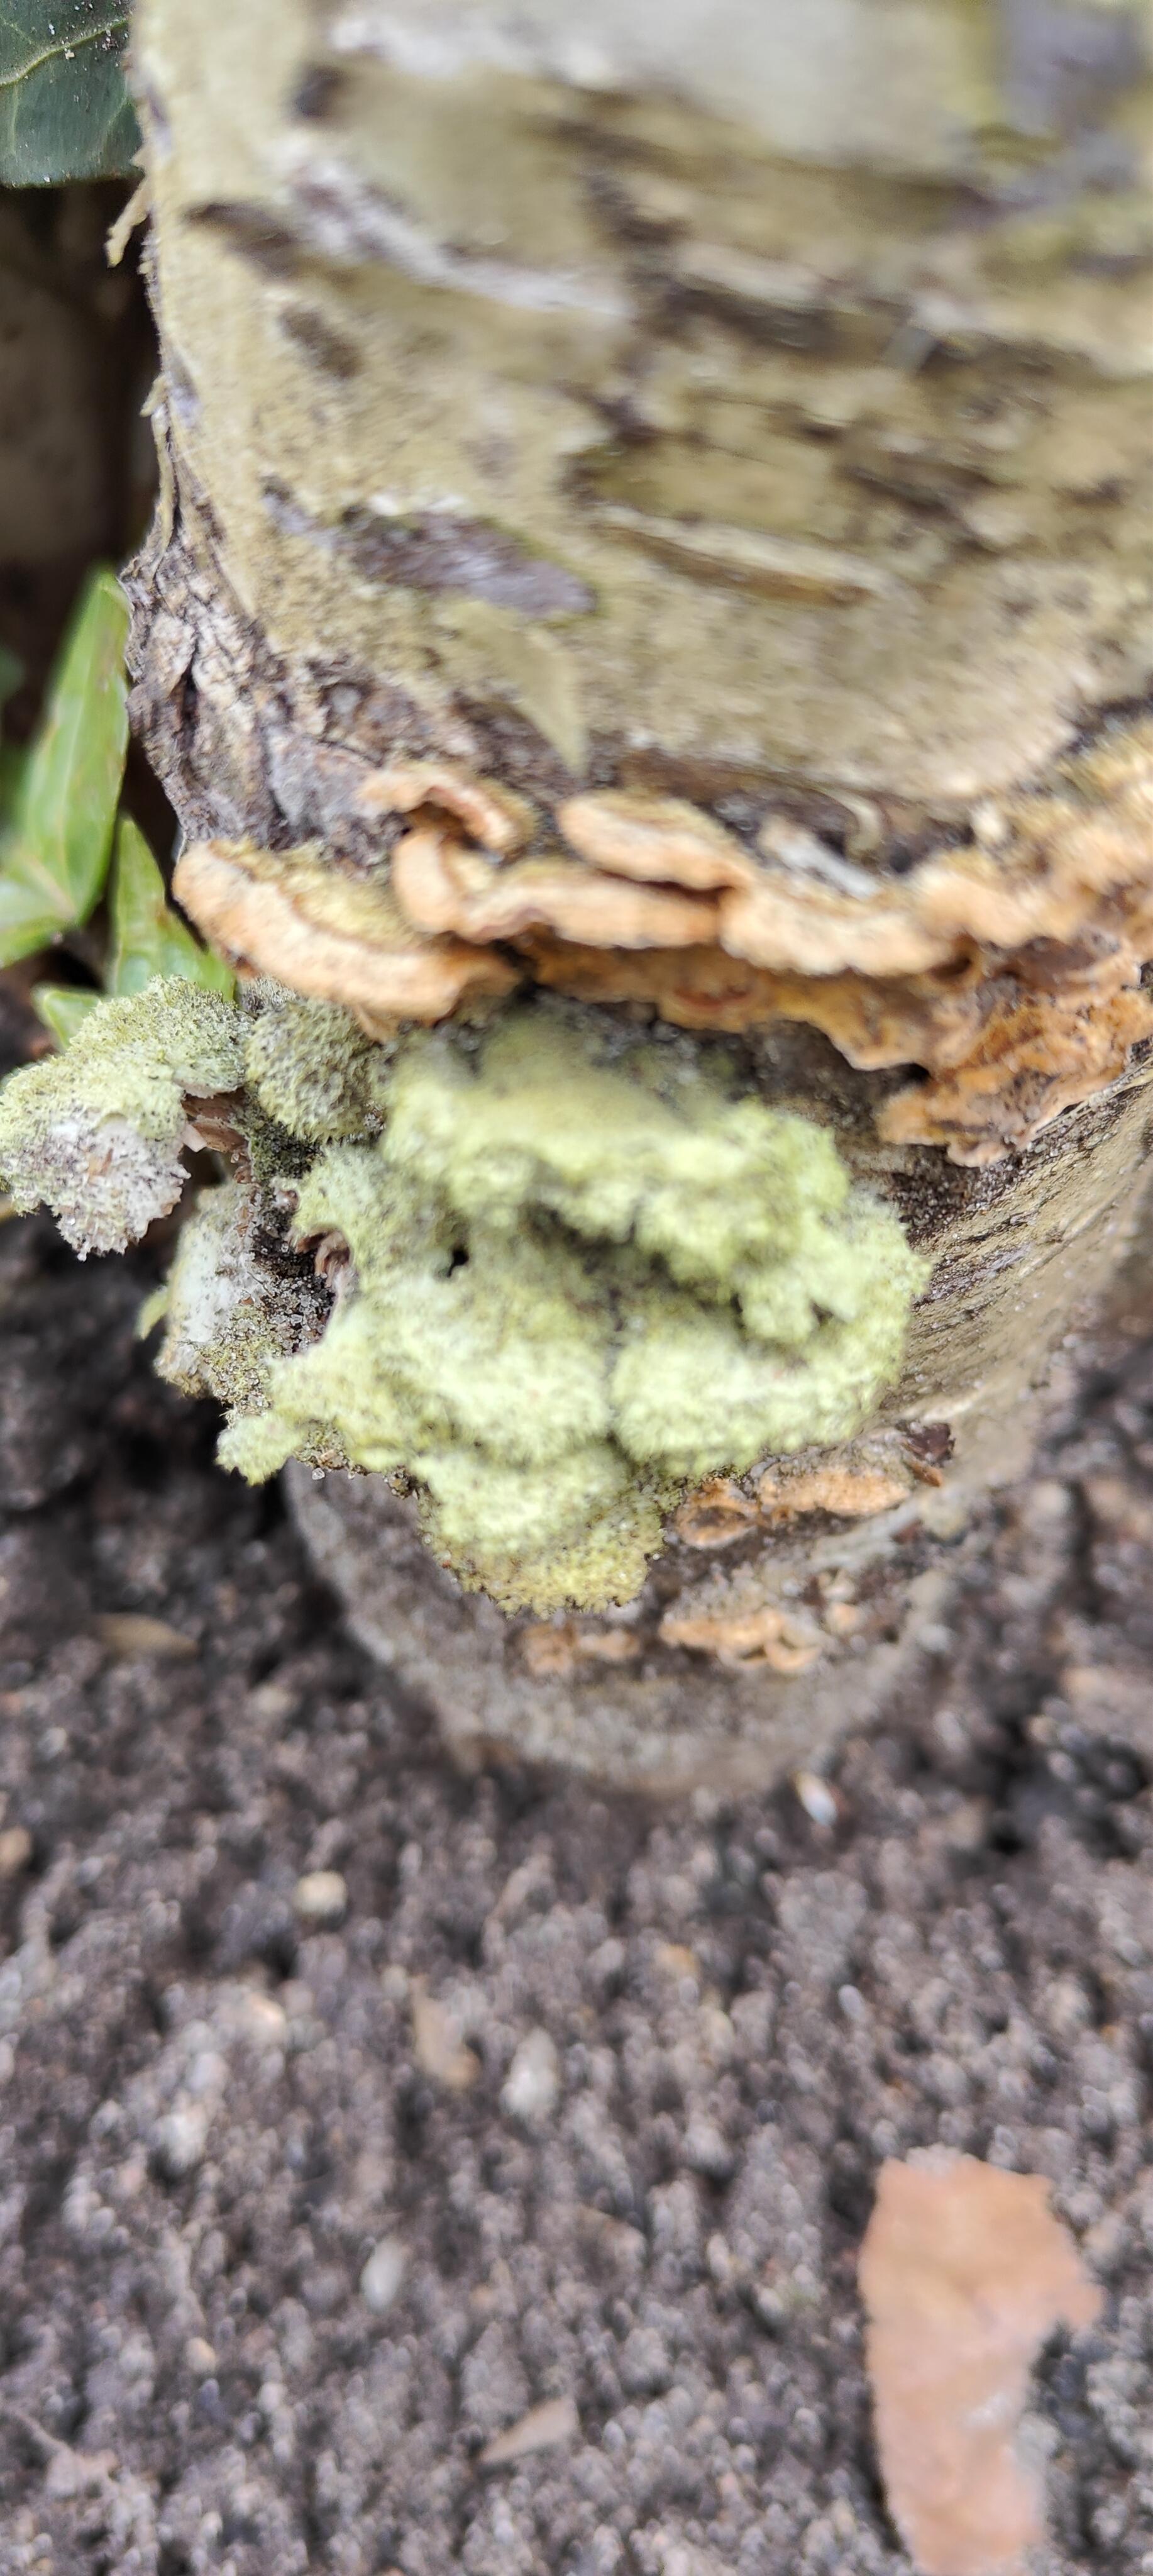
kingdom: Fungi
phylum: Basidiomycota
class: Agaricomycetes
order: Agaricales
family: Schizophyllaceae
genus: Schizophyllum
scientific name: Schizophyllum commune
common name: kløvblad
